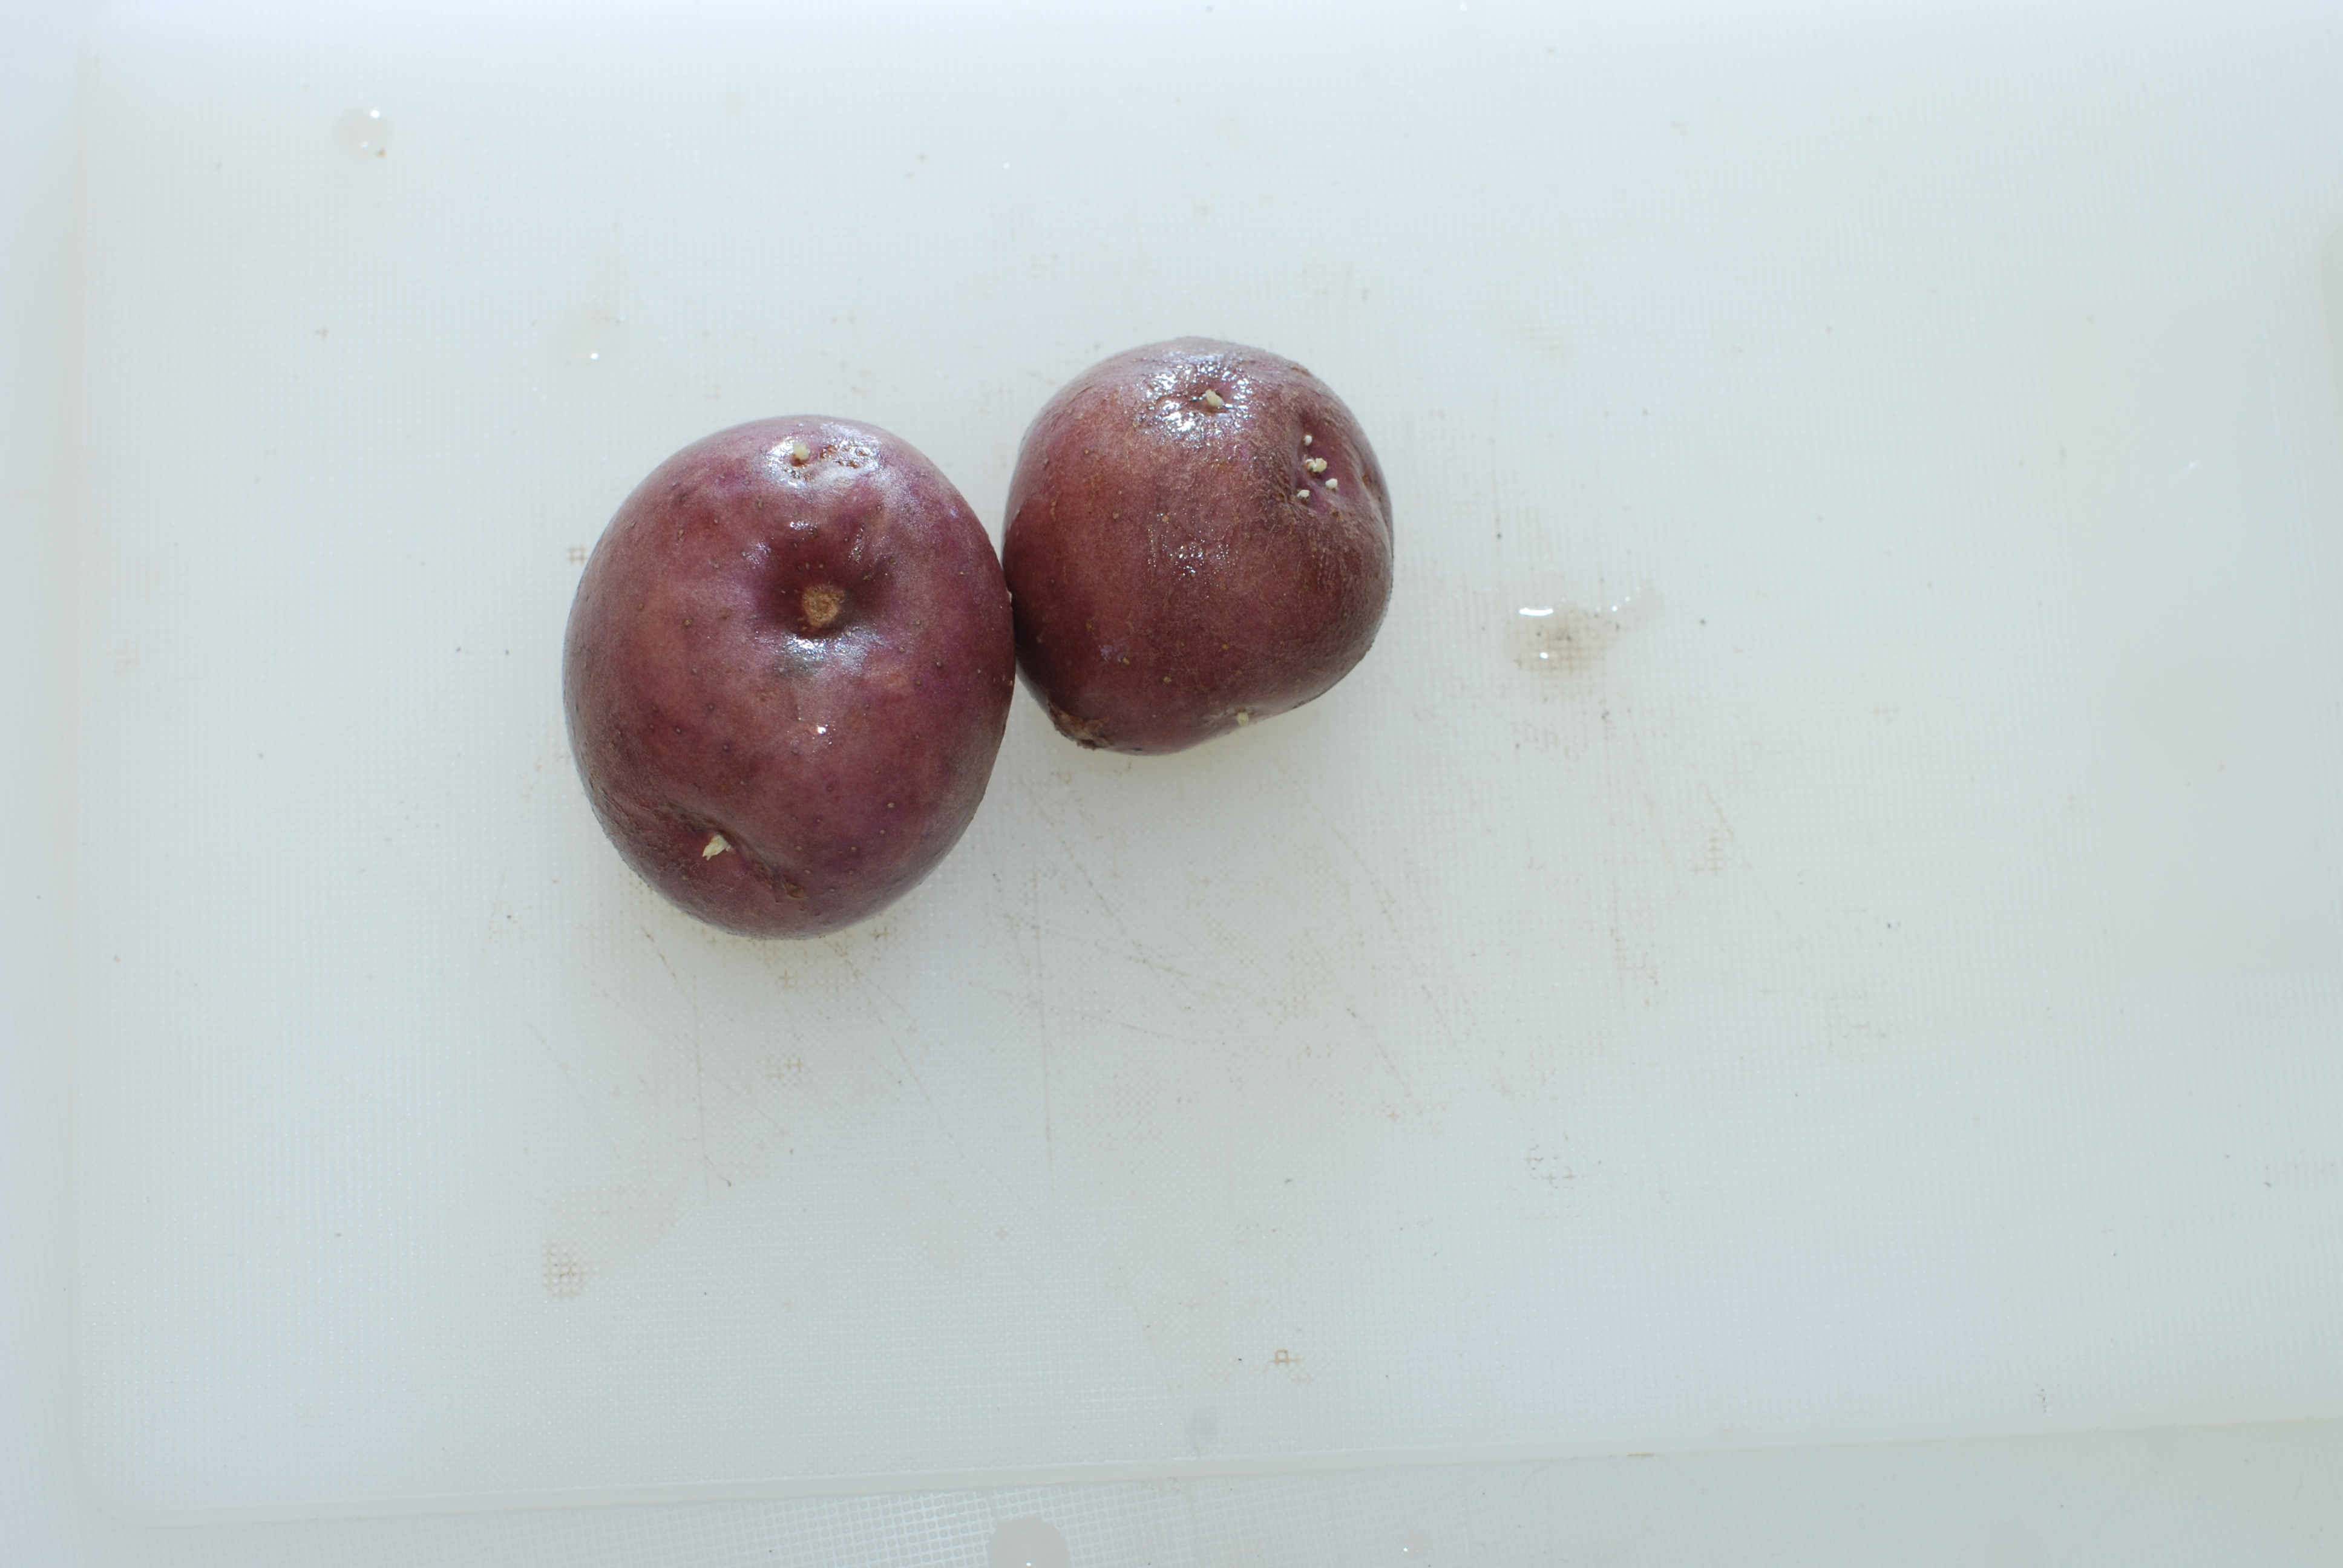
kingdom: Plantae
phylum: Tracheophyta
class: Magnoliopsida
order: Solanales
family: Solanaceae
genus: Solanum
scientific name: Solanum tuberosum
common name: Potato
